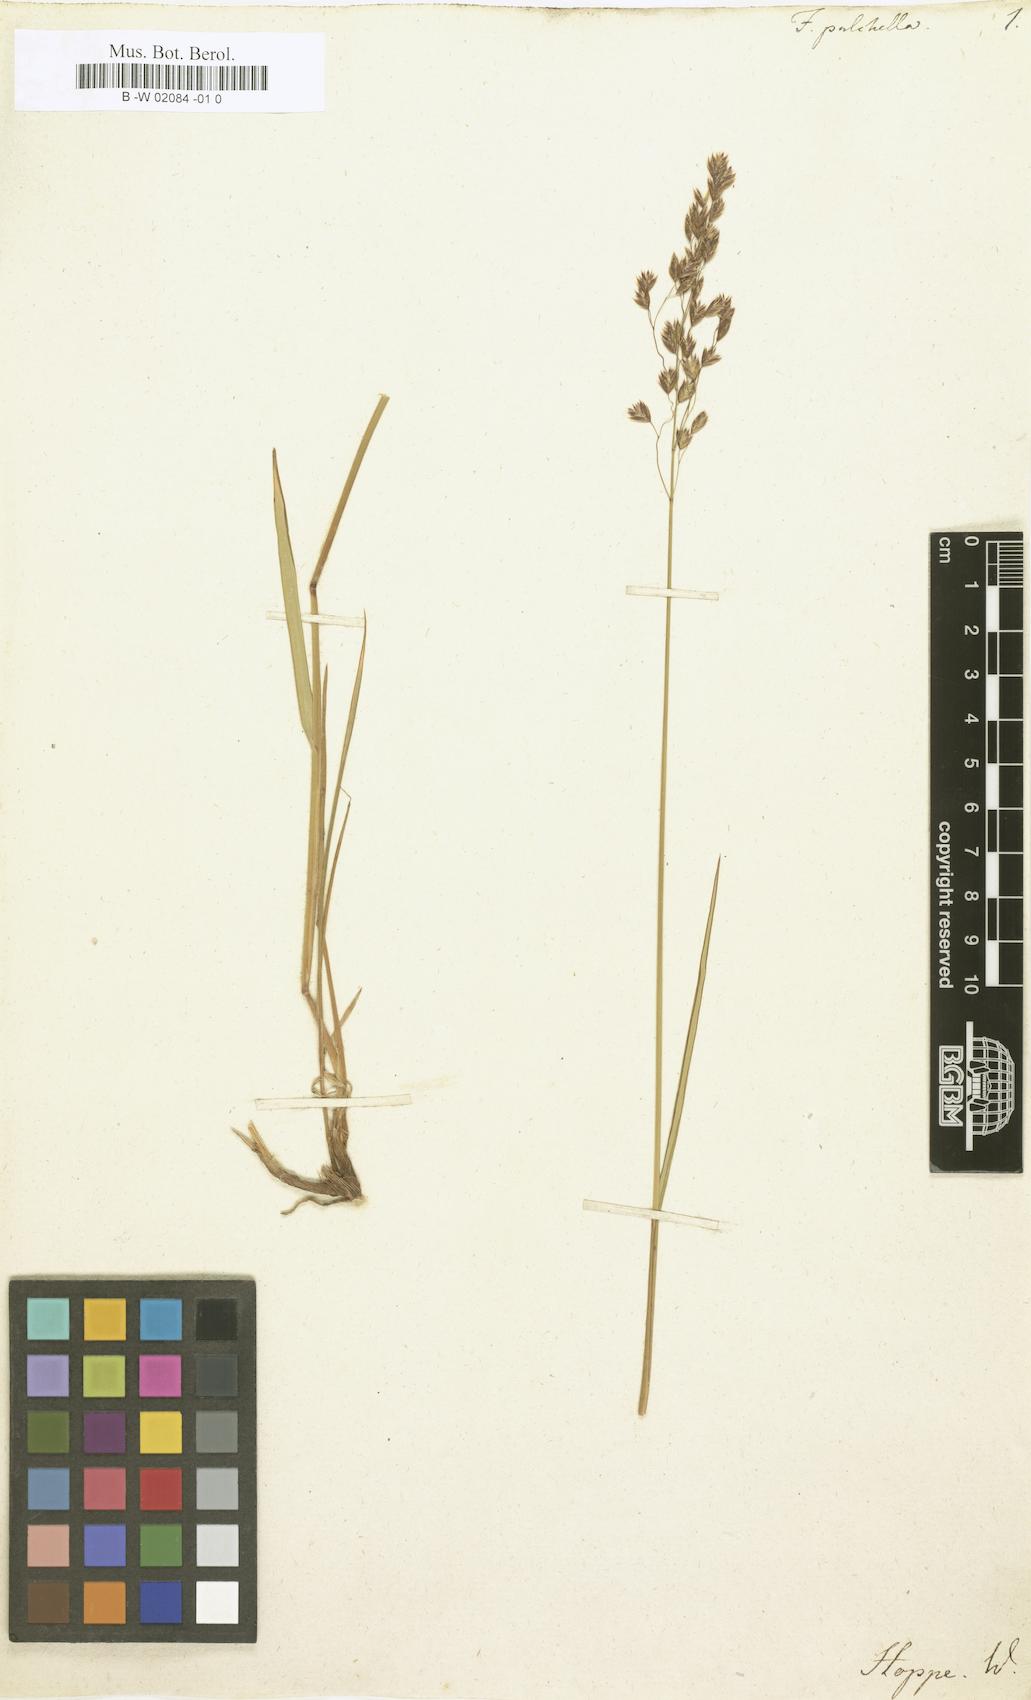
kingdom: Plantae
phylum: Tracheophyta
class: Liliopsida
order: Poales
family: Poaceae
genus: Festuca
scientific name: Festuca pulchella
